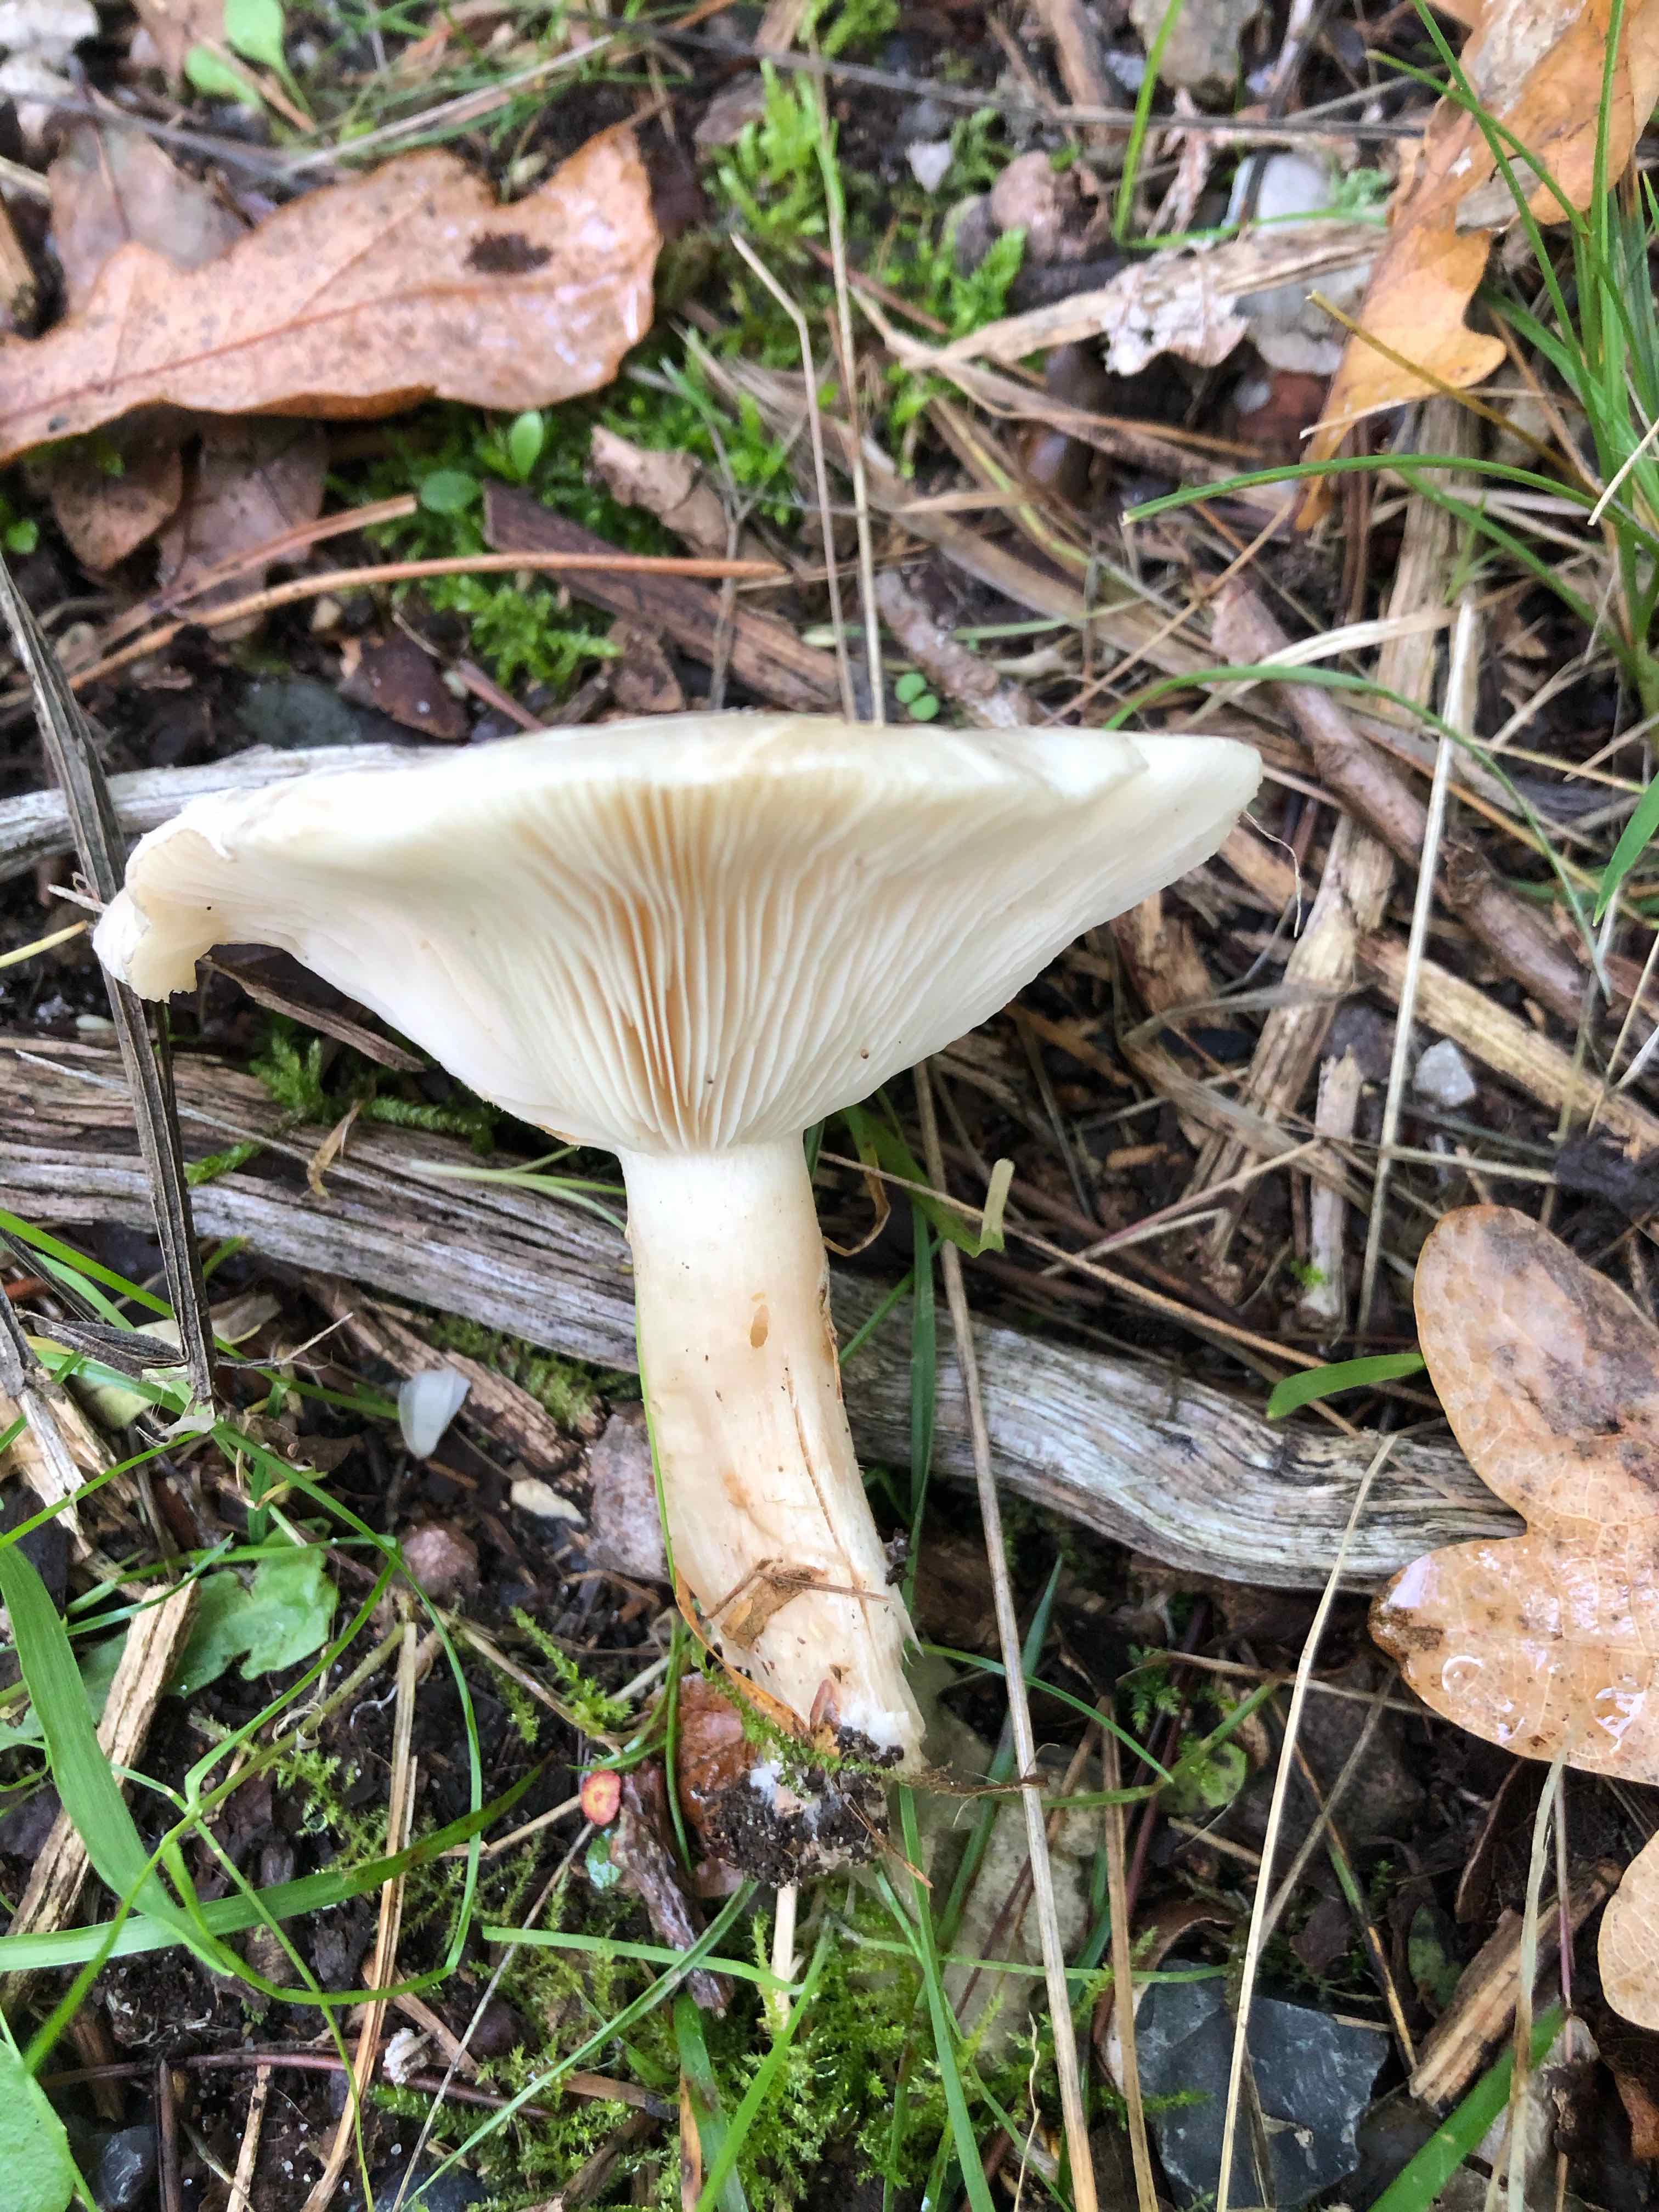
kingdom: Fungi
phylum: Basidiomycota
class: Agaricomycetes
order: Agaricales
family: Tricholomataceae
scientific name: Tricholomataceae
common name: ridderhatfamilien
